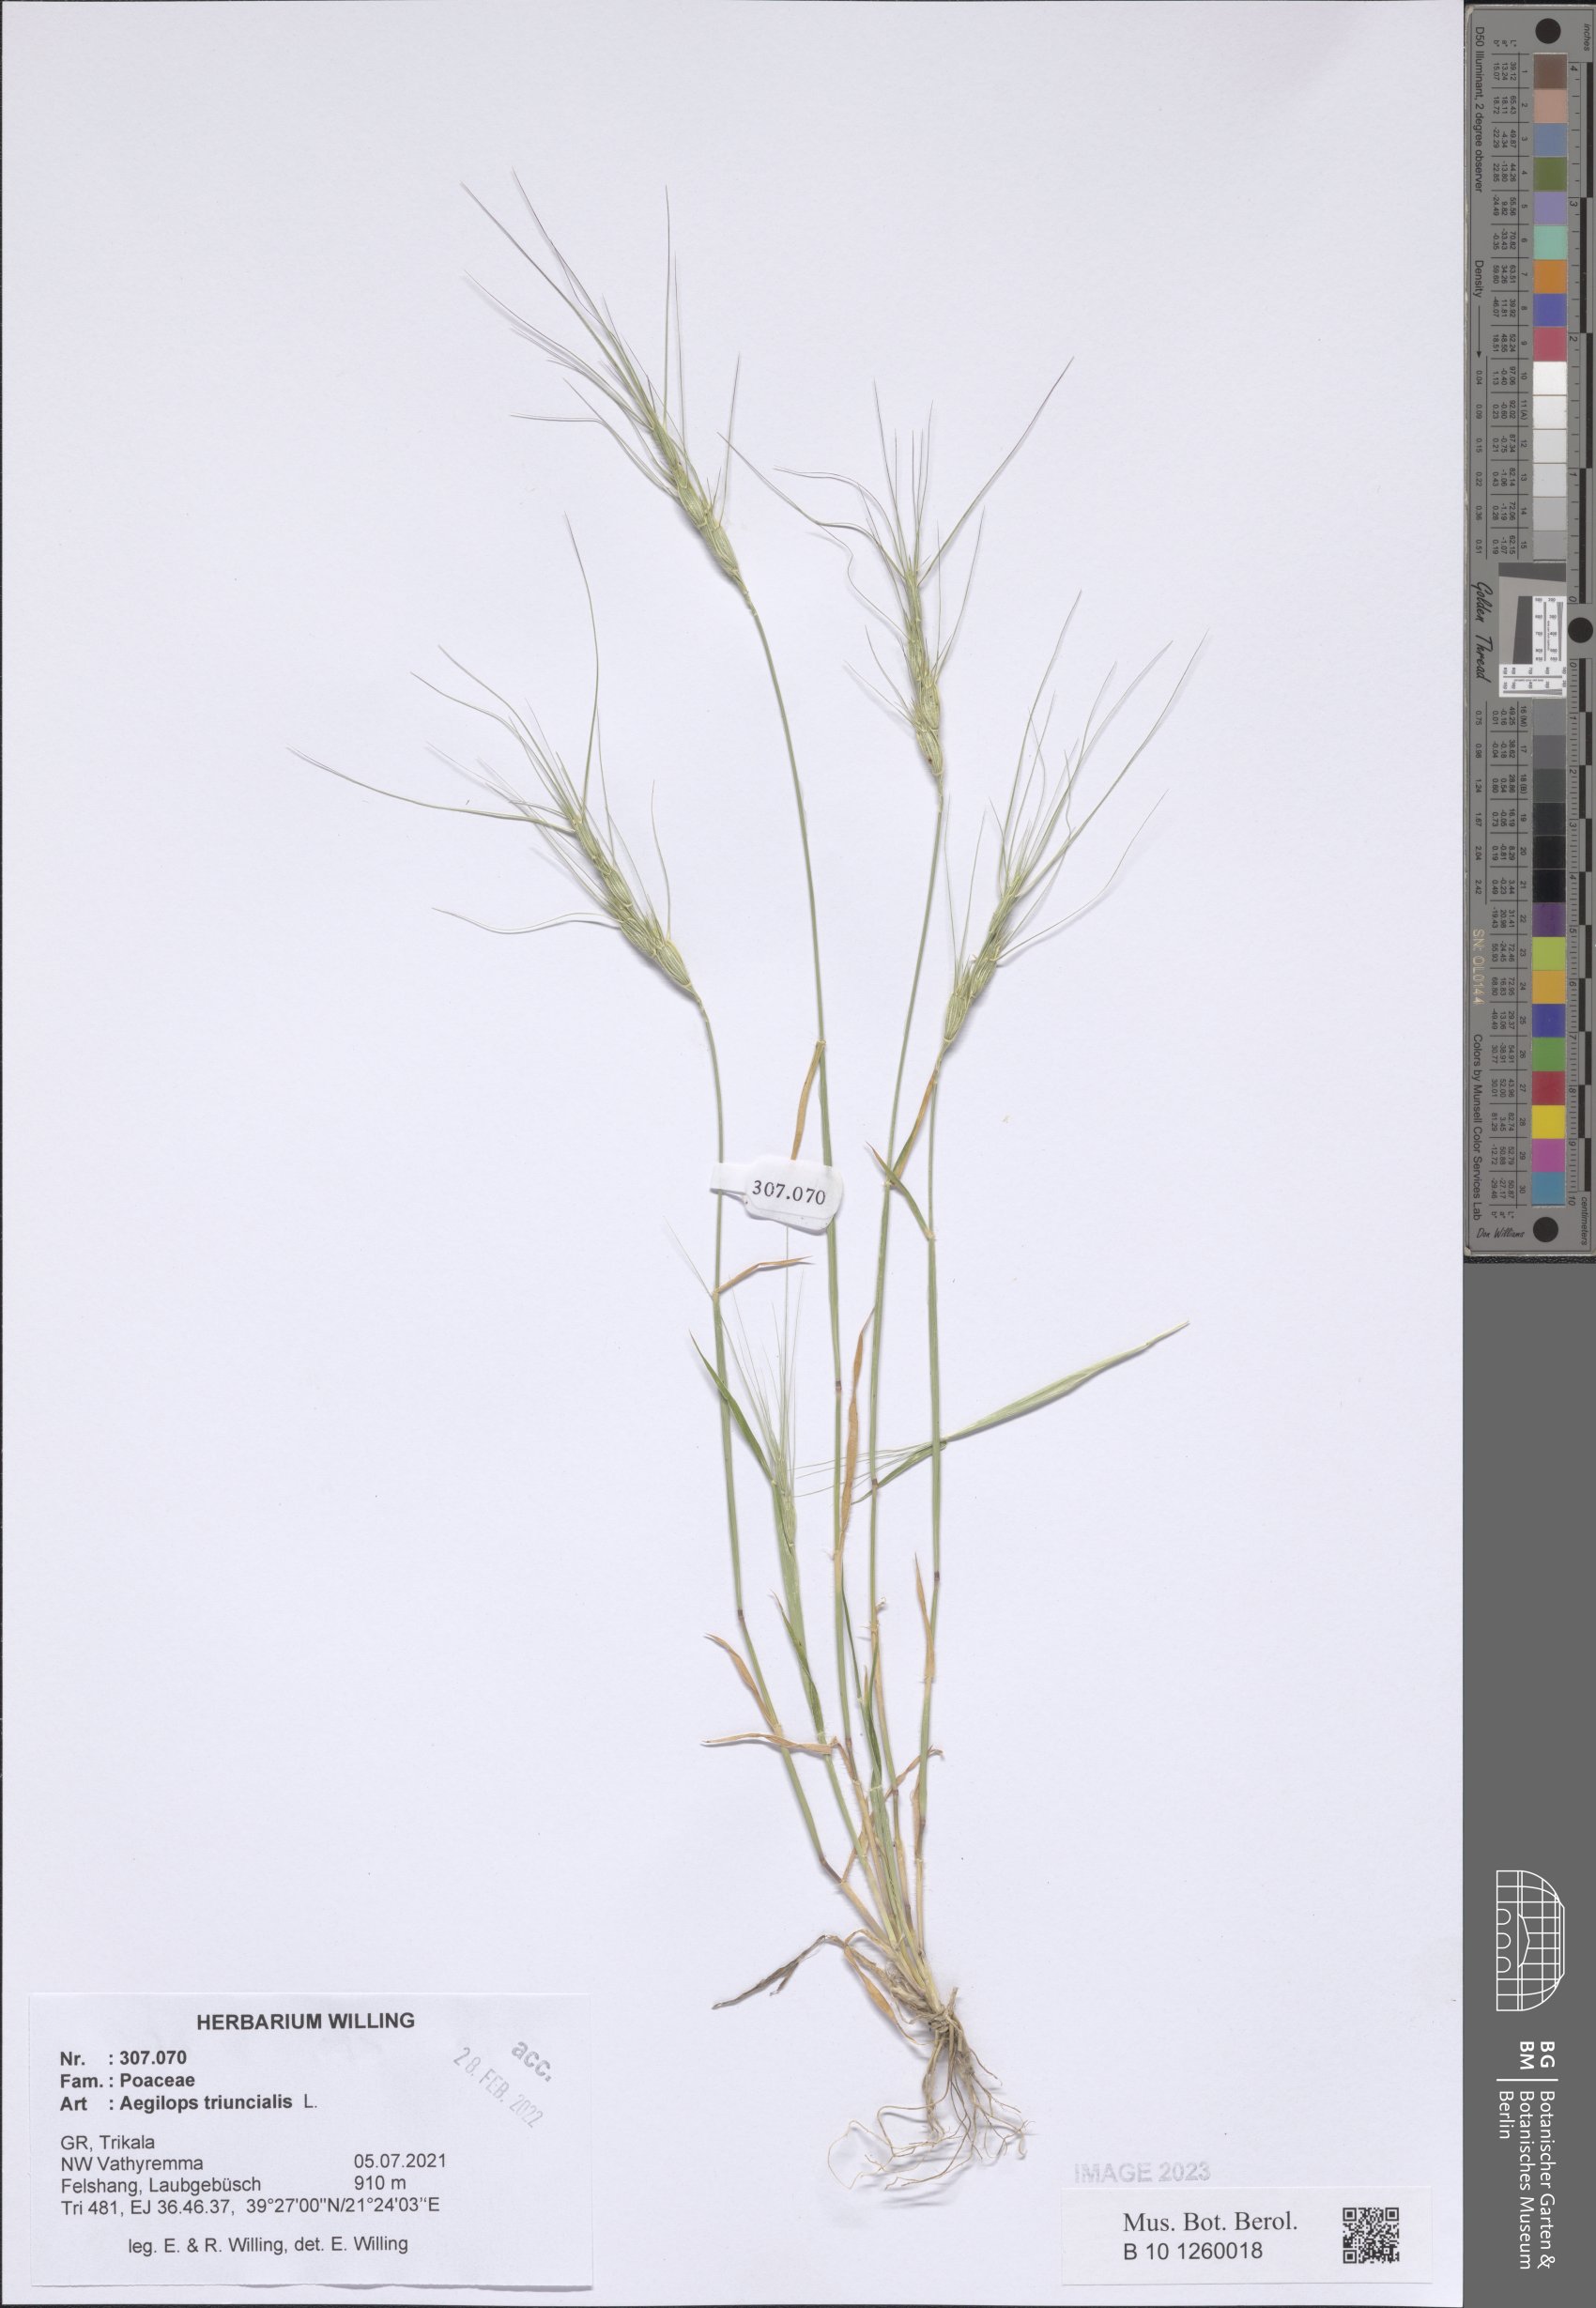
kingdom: Plantae
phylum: Tracheophyta
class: Liliopsida
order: Poales
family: Poaceae
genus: Aegilops
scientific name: Aegilops triuncialis
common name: Barb goat grass
